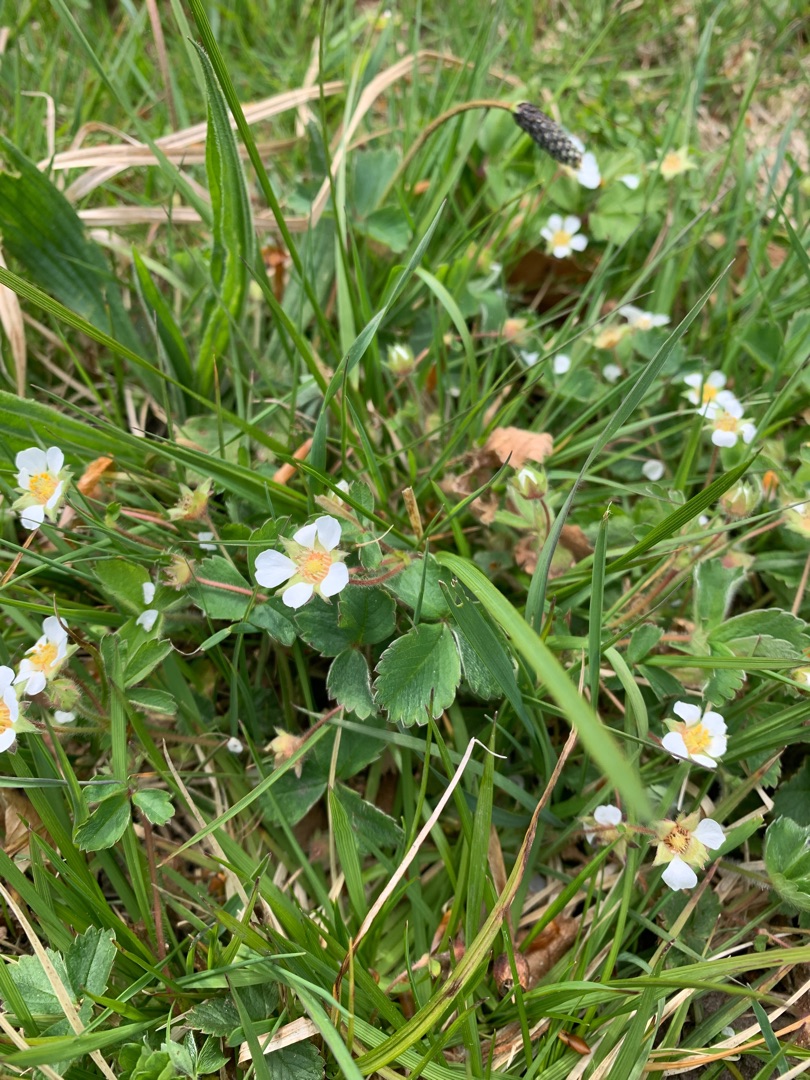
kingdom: Plantae
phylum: Tracheophyta
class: Magnoliopsida
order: Rosales
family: Rosaceae
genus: Potentilla
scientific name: Potentilla sterilis
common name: Jordbær-potentil
